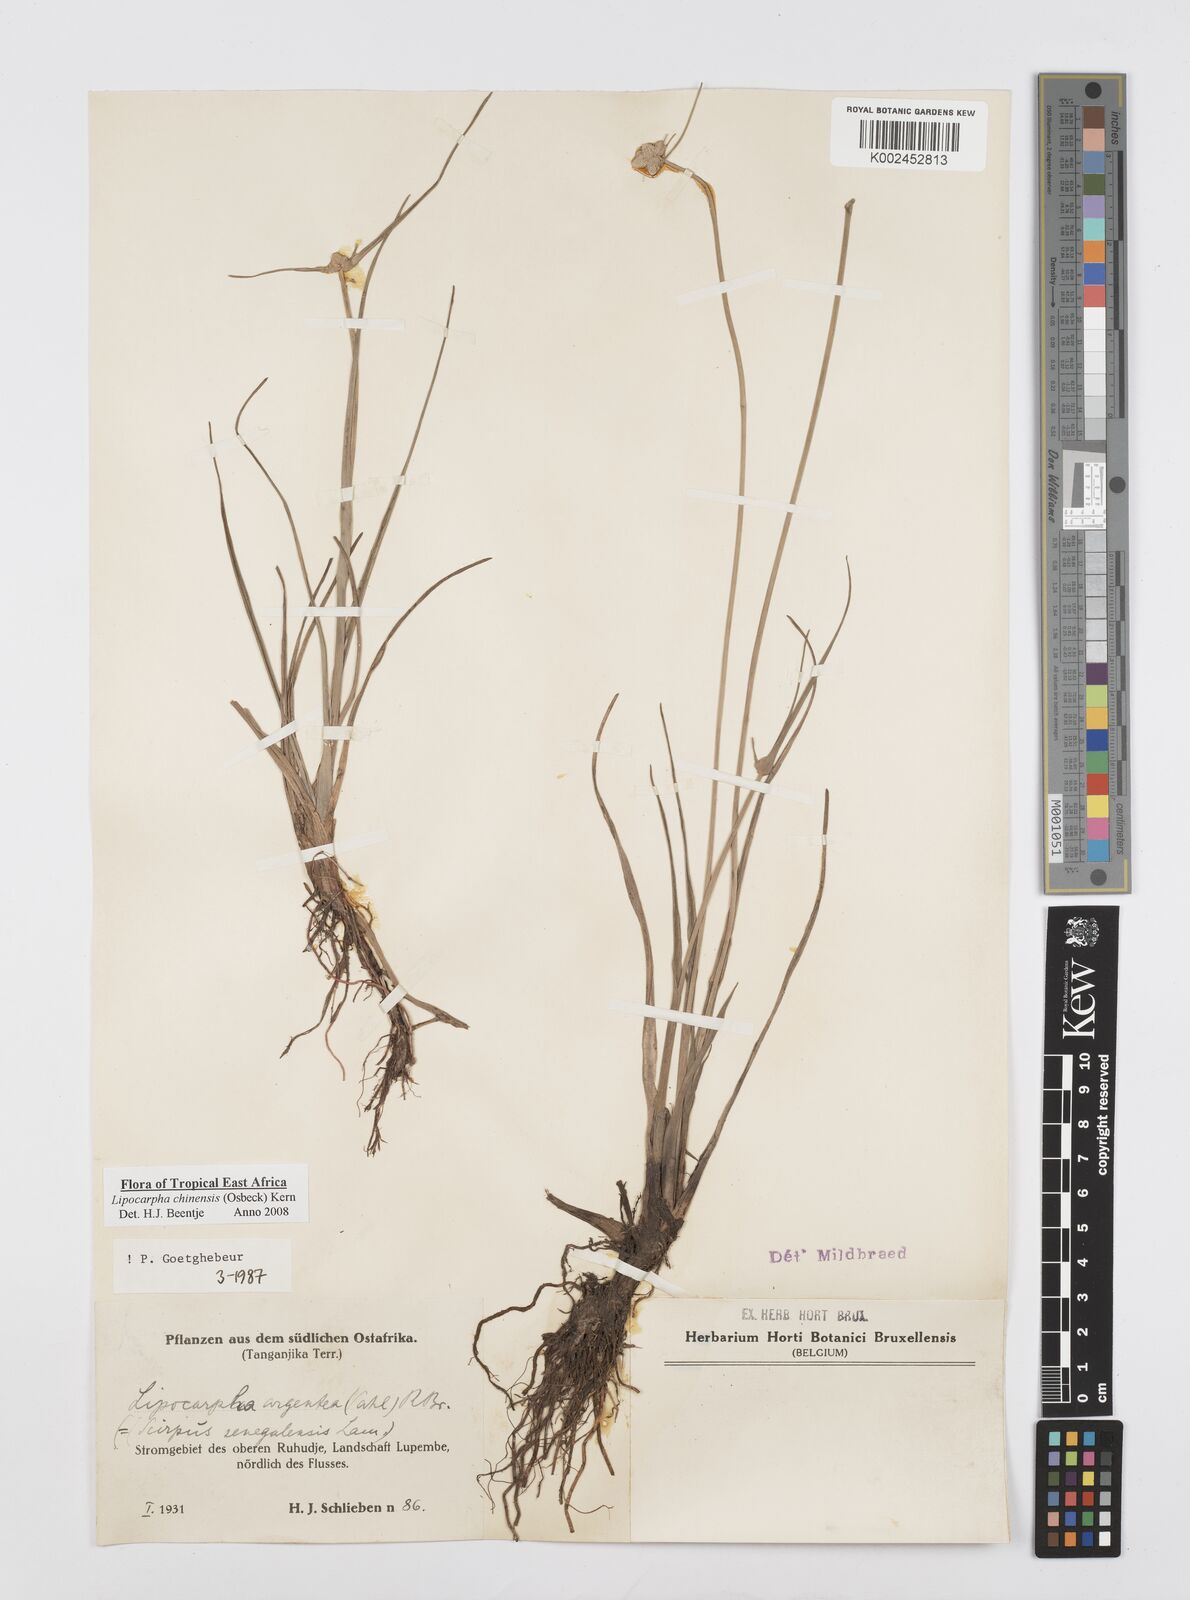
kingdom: Plantae
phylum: Tracheophyta
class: Liliopsida
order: Poales
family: Cyperaceae
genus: Cyperus
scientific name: Cyperus albescens
